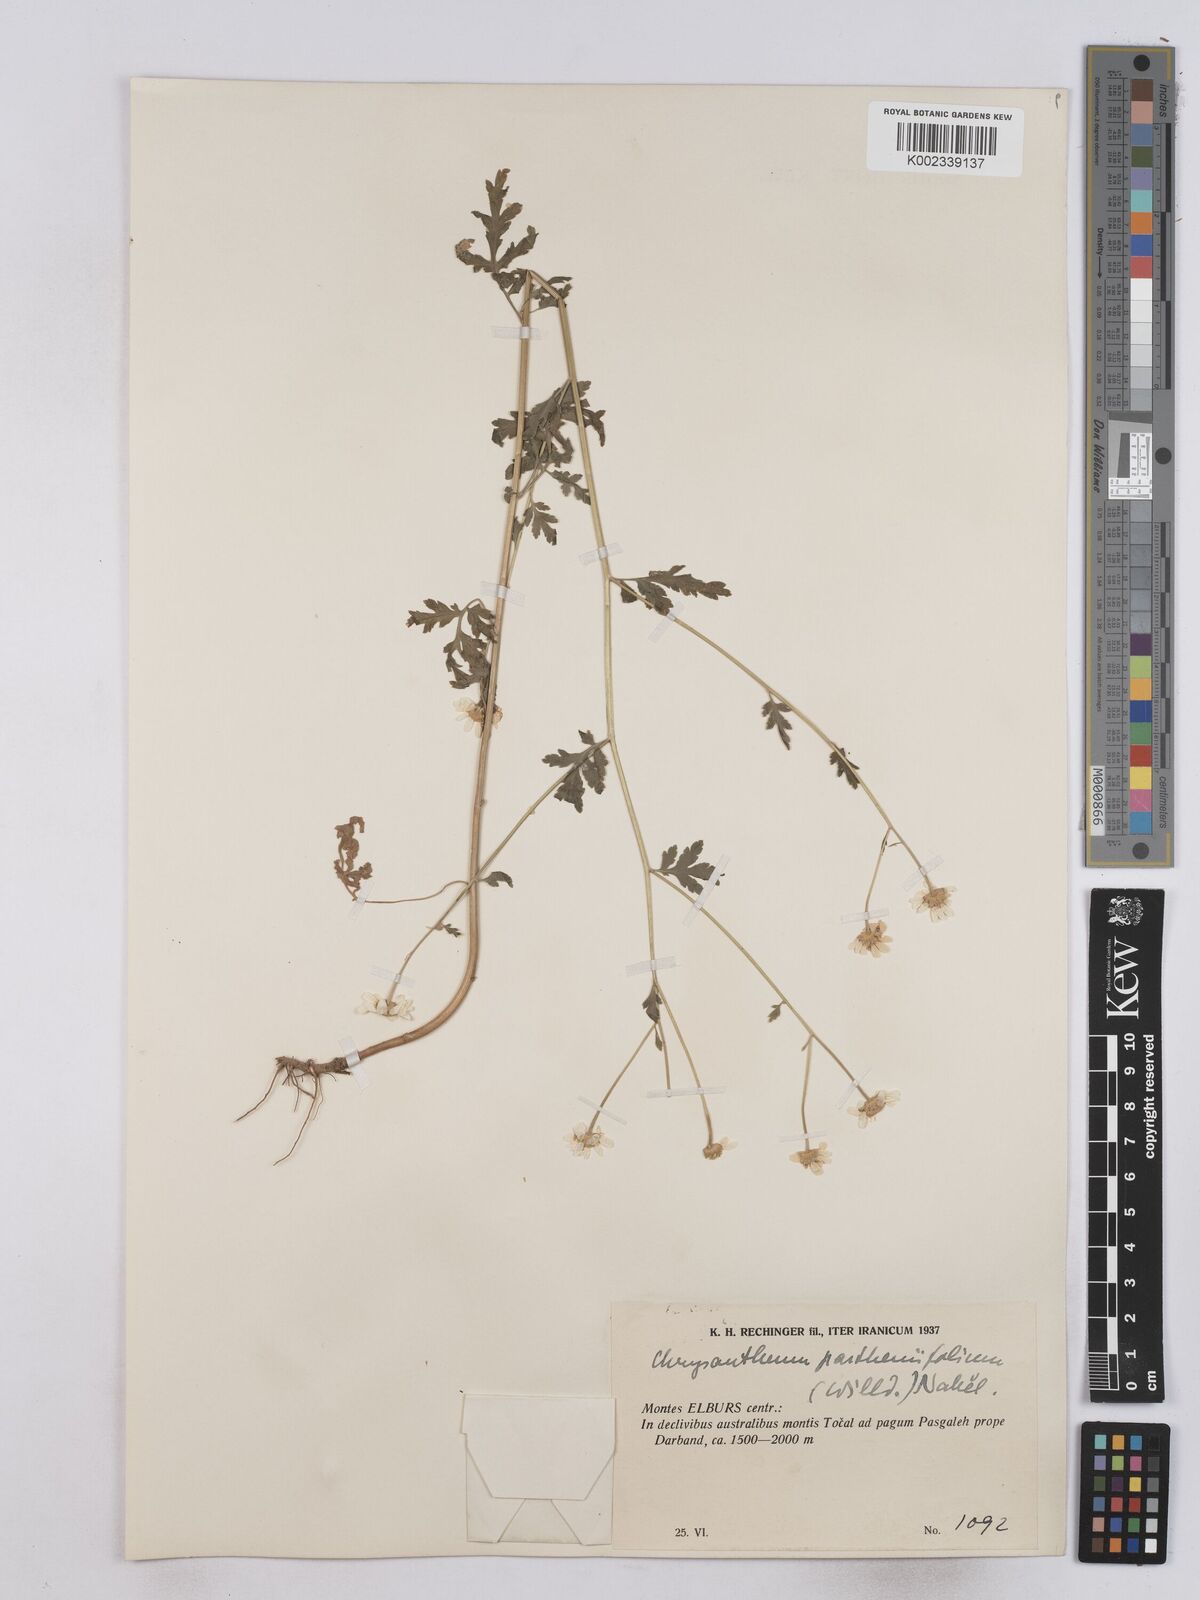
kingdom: Plantae
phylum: Tracheophyta
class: Magnoliopsida
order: Asterales
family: Asteraceae
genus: Tanacetum
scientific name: Tanacetum partheniifolium
